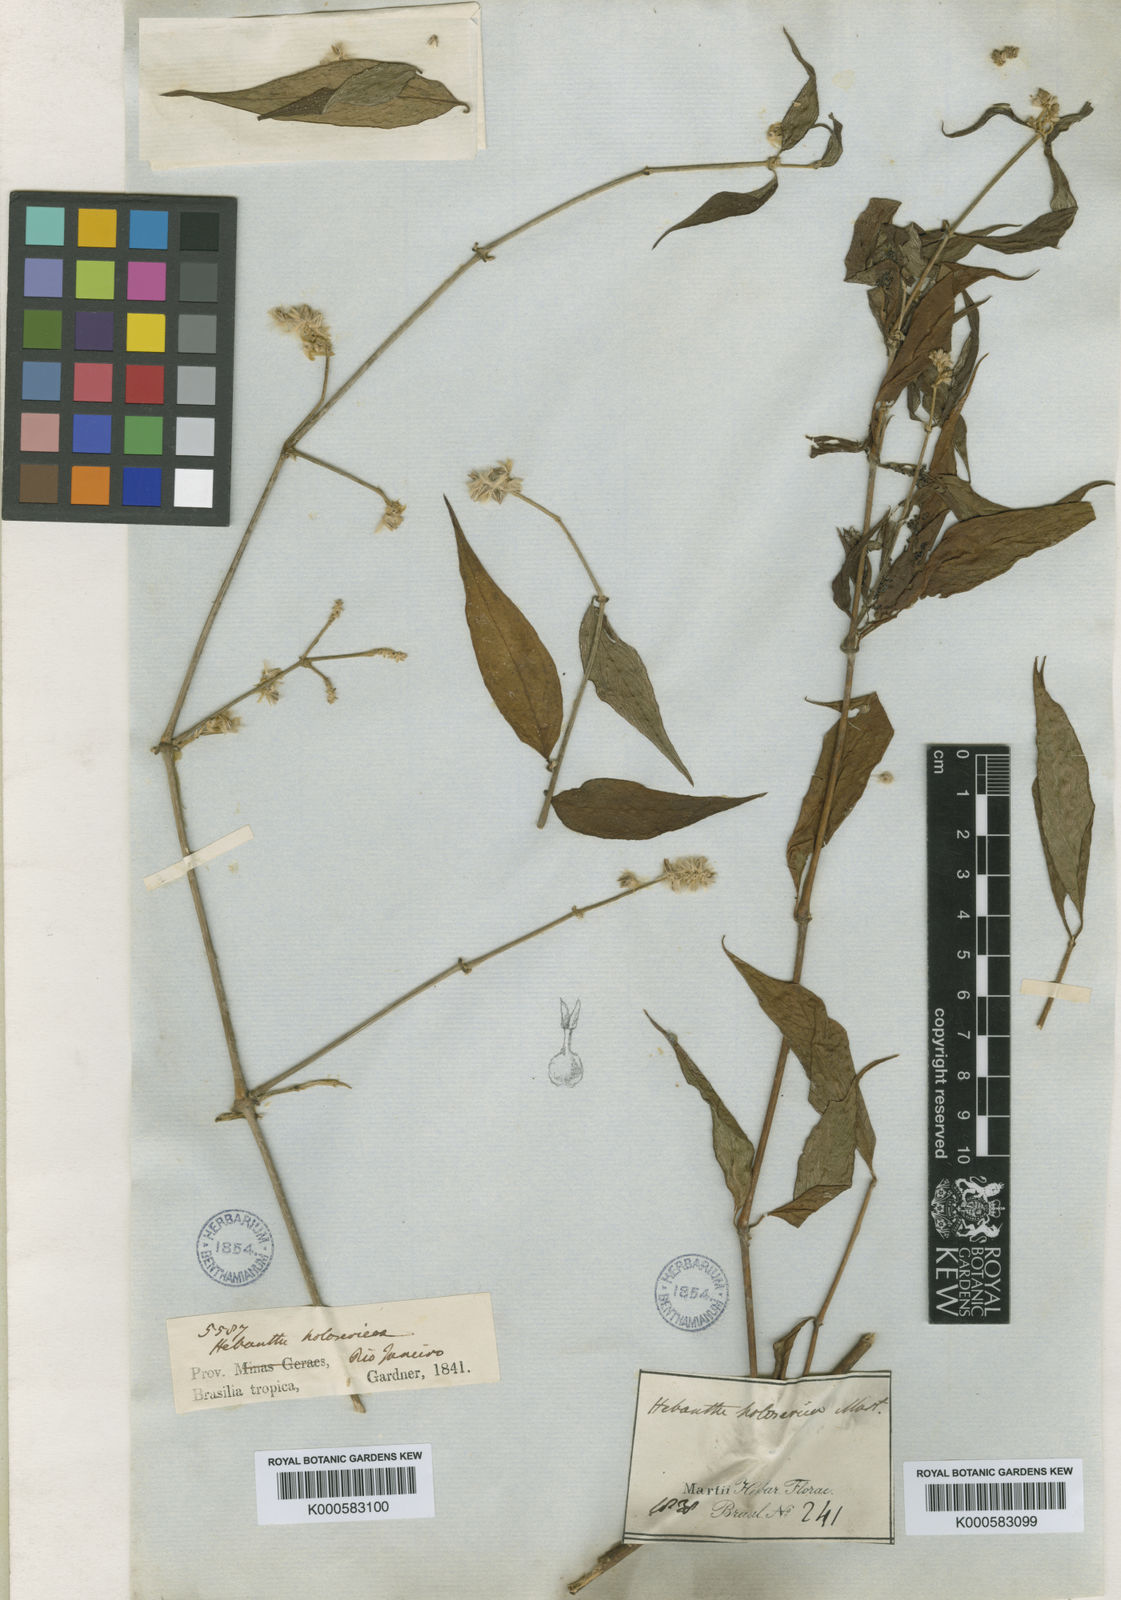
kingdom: Plantae
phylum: Tracheophyta
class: Magnoliopsida
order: Caryophyllales
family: Amaranthaceae
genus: Gomphrena
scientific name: Gomphrena vaga
